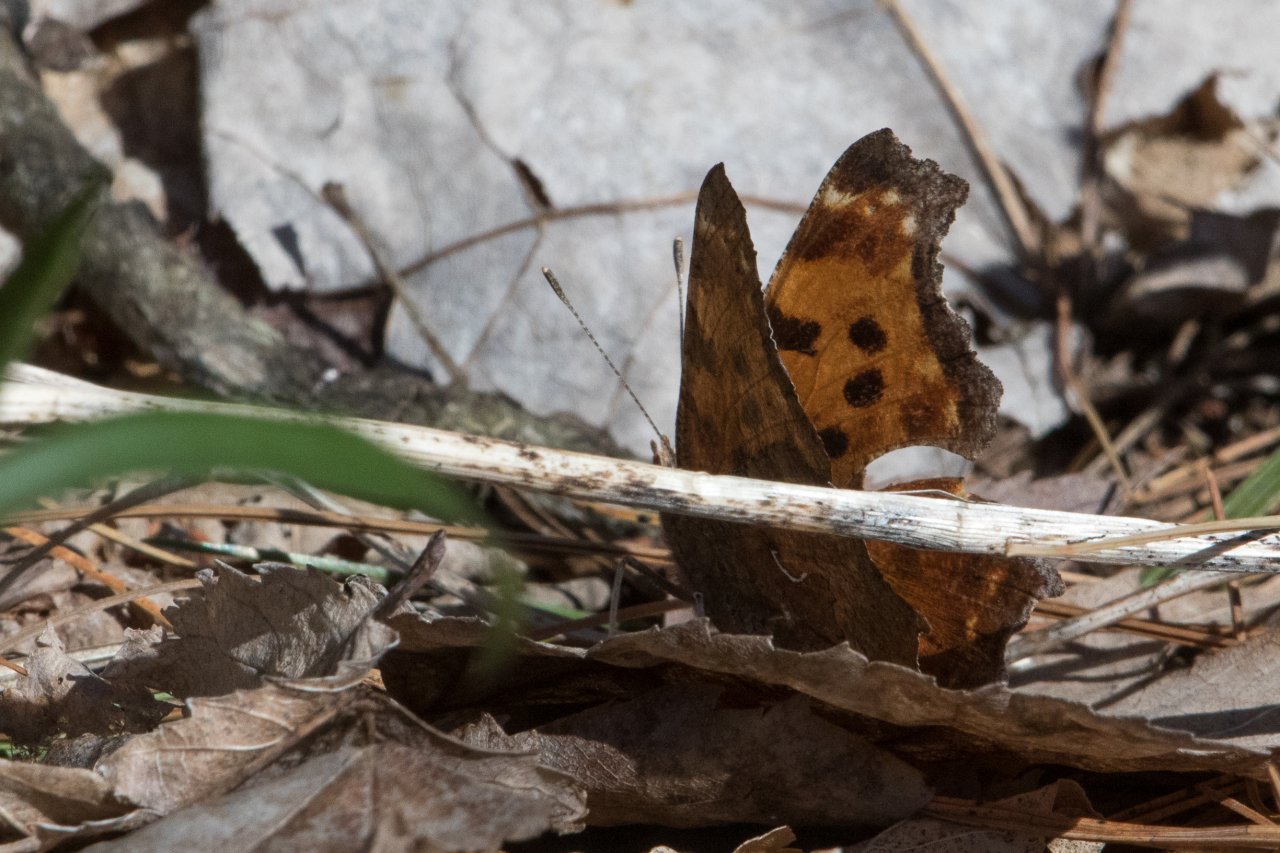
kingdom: Animalia
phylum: Arthropoda
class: Insecta
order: Lepidoptera
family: Nymphalidae
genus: Polygonia
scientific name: Polygonia comma
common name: Eastern Comma
